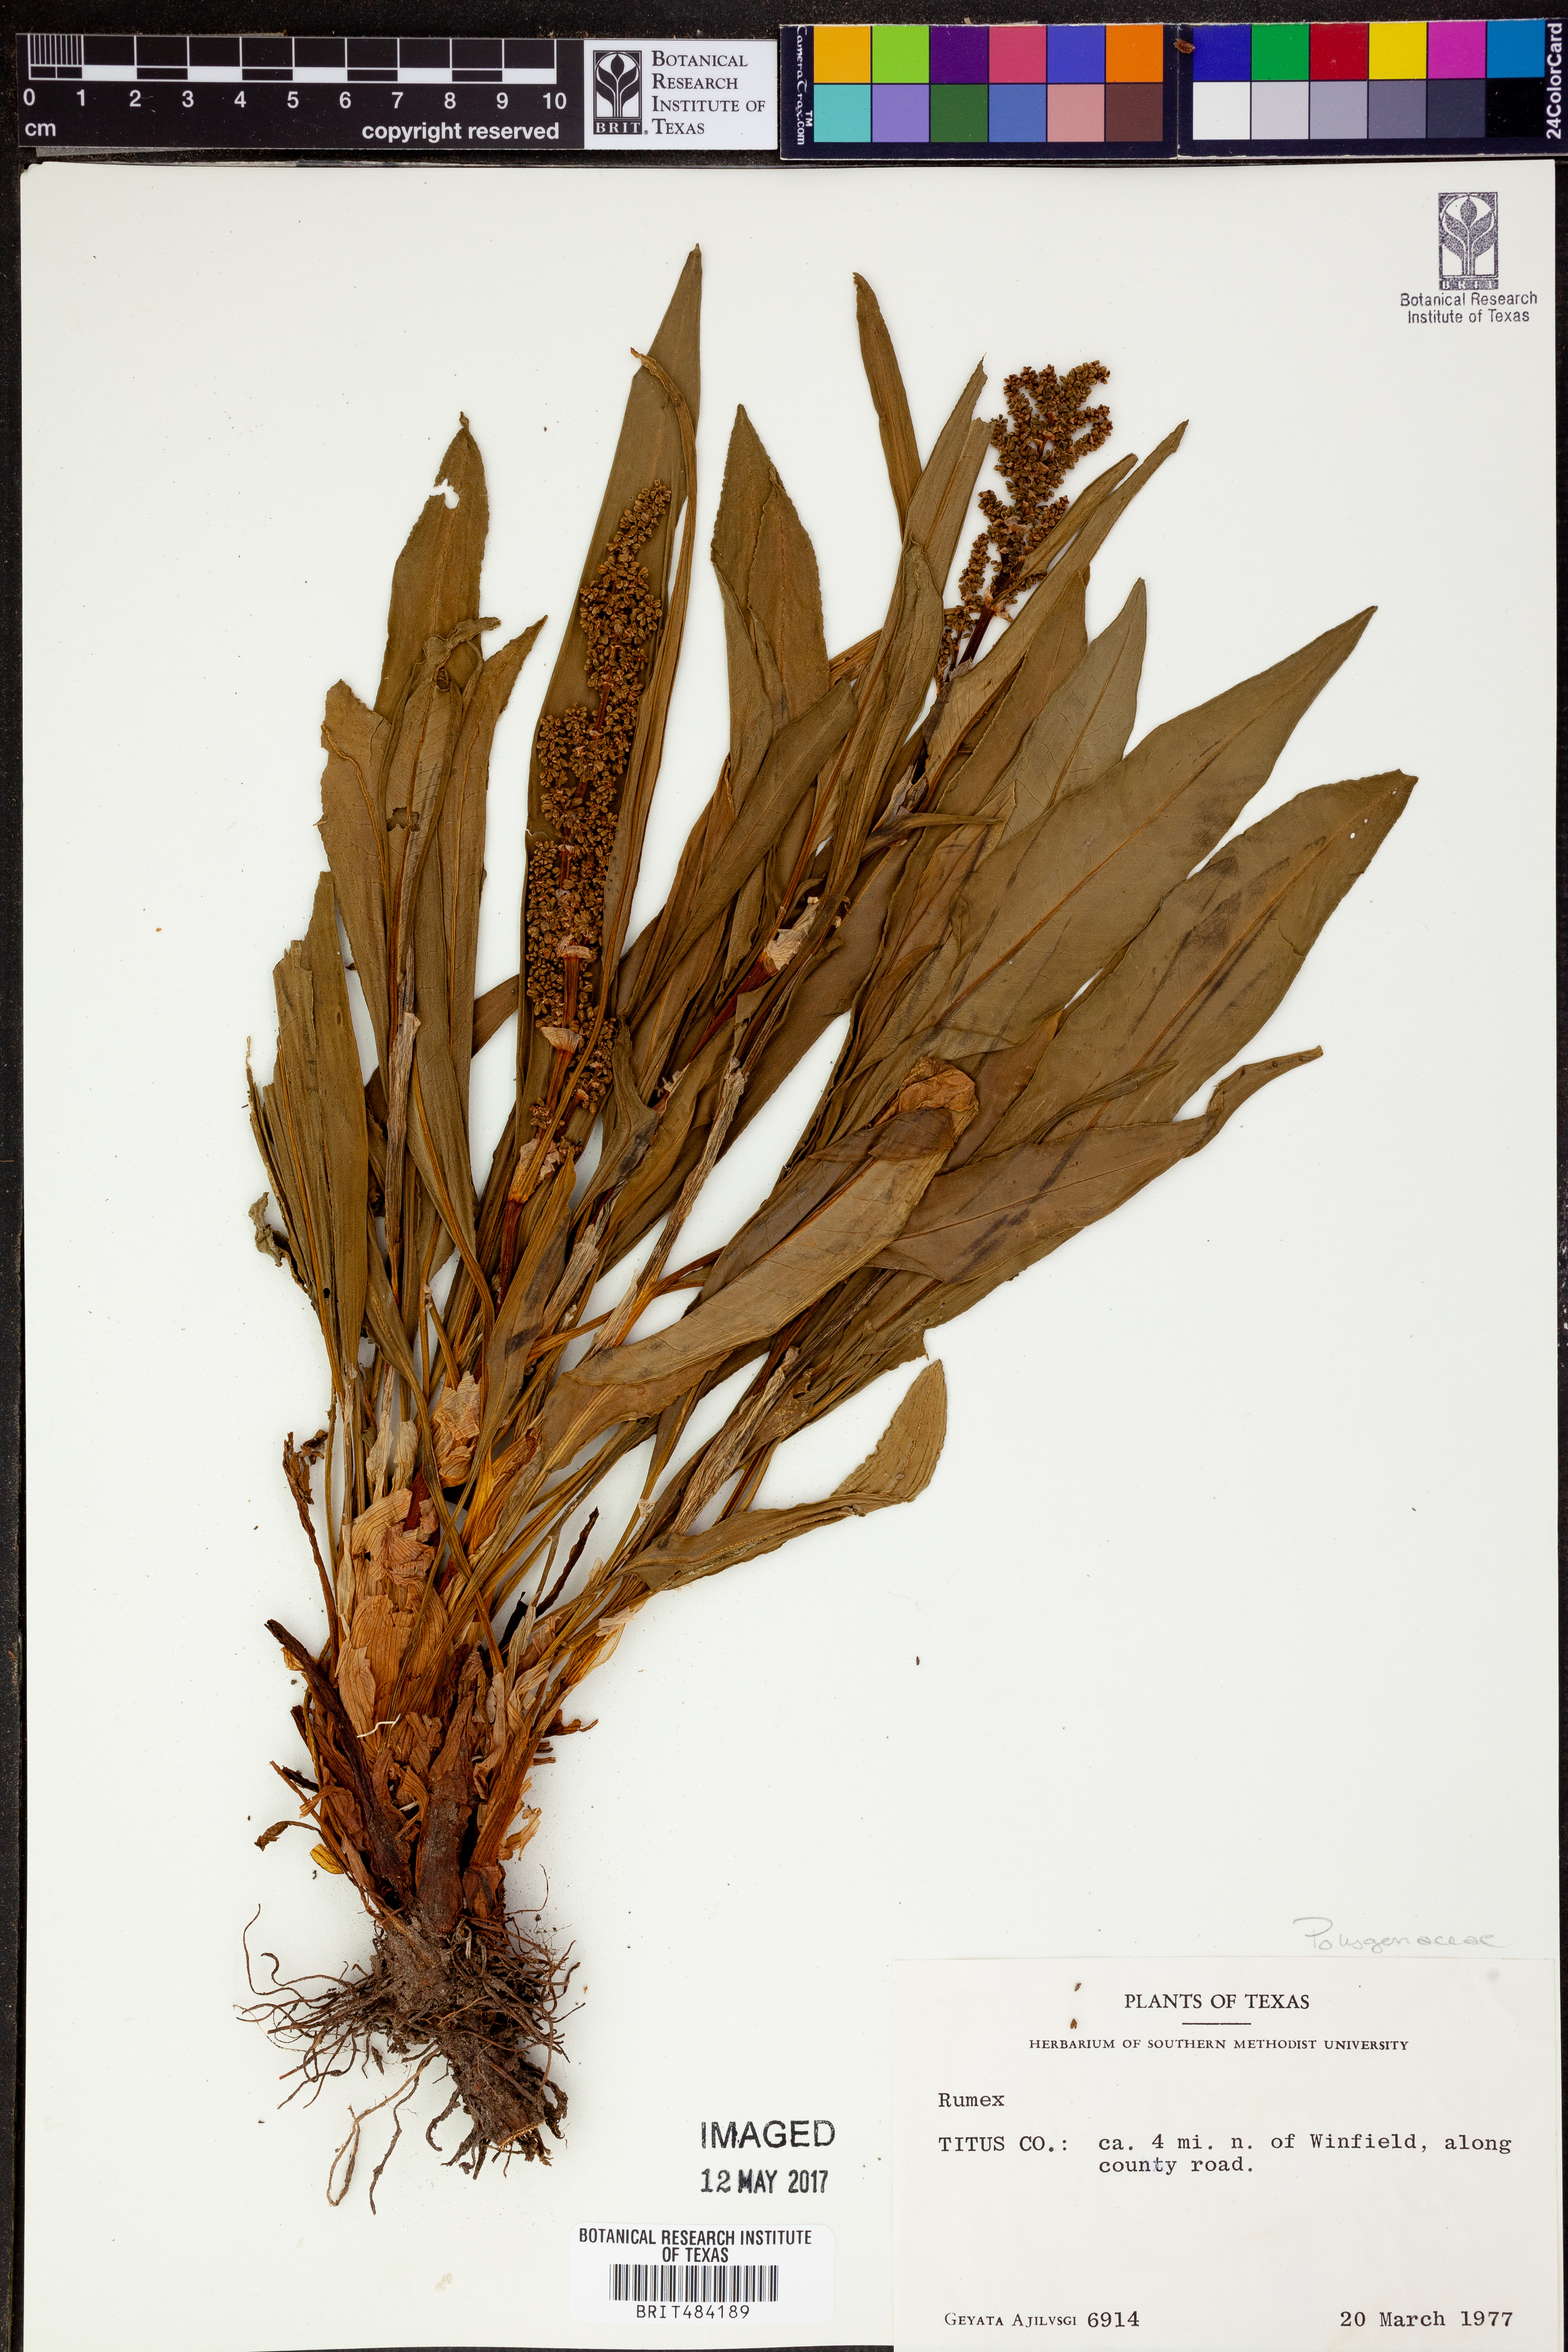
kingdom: Plantae
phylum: Tracheophyta
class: Magnoliopsida
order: Caryophyllales
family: Polygonaceae
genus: Rumex
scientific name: Rumex
